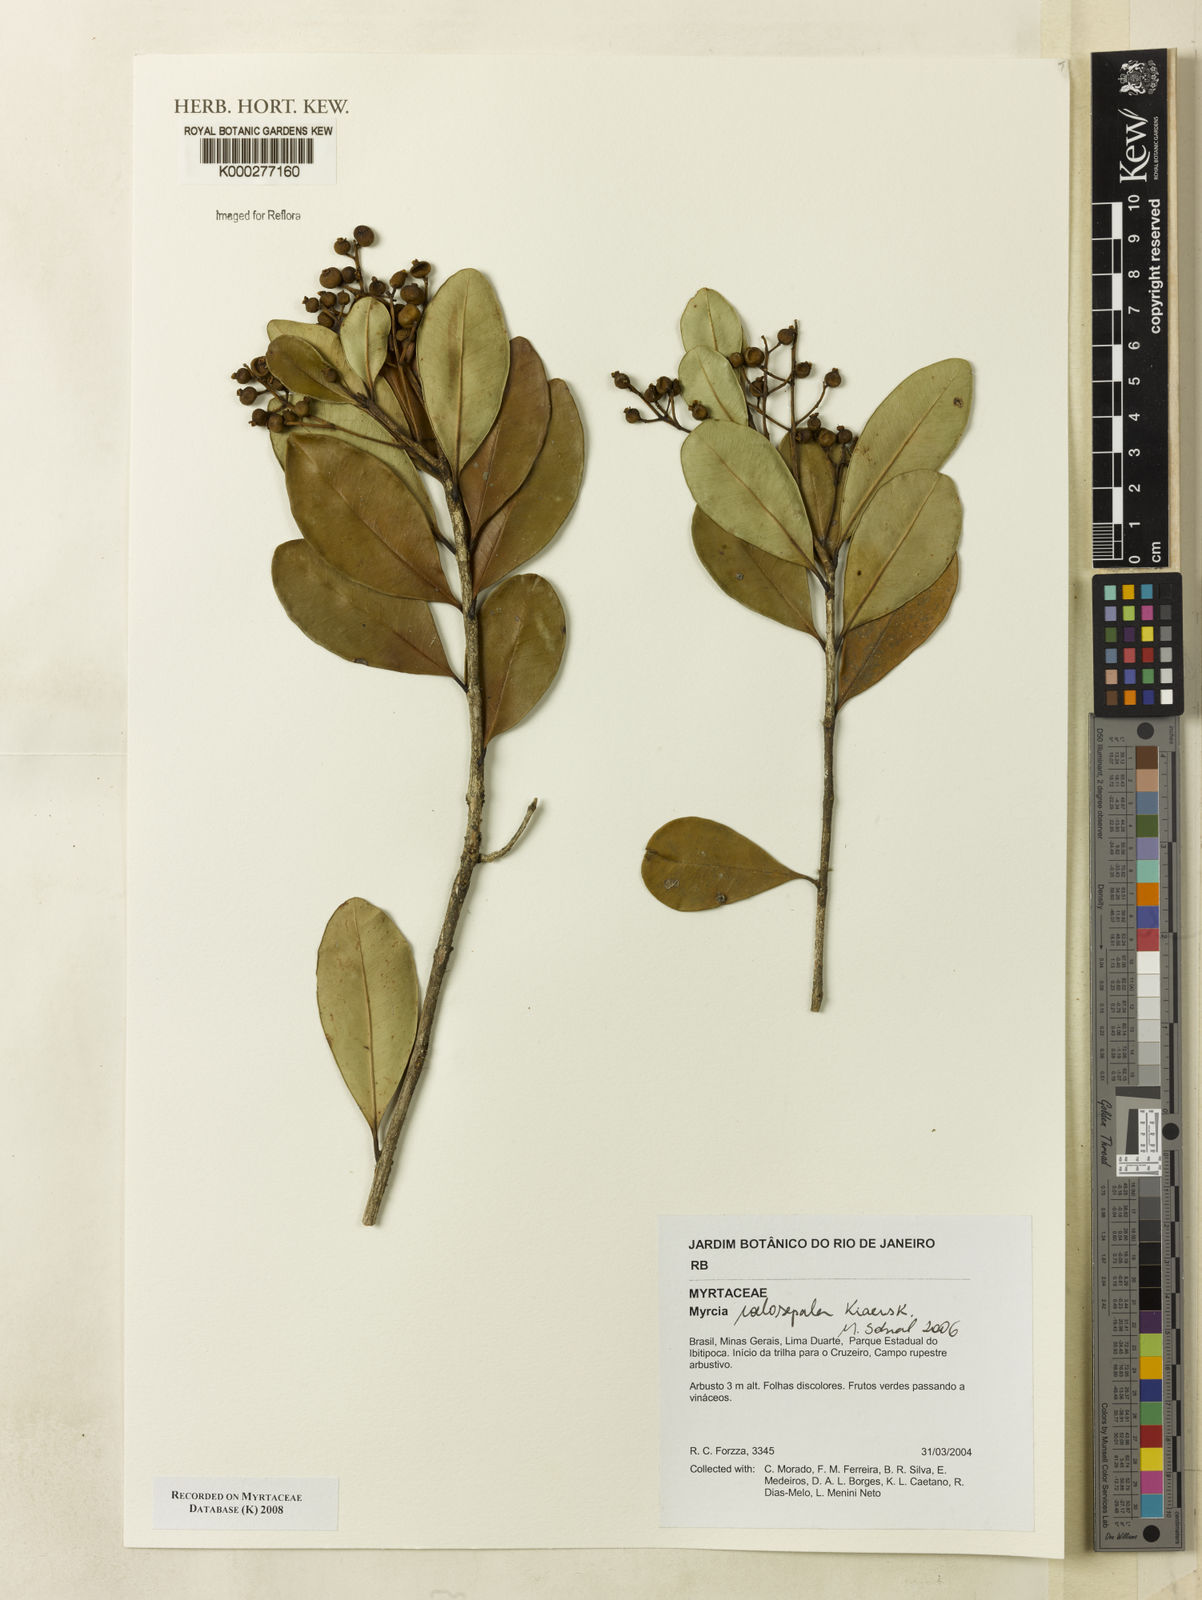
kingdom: Plantae
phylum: Tracheophyta
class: Magnoliopsida
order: Myrtales
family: Myrtaceae
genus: Myrcia
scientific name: Myrcia coelosepala
